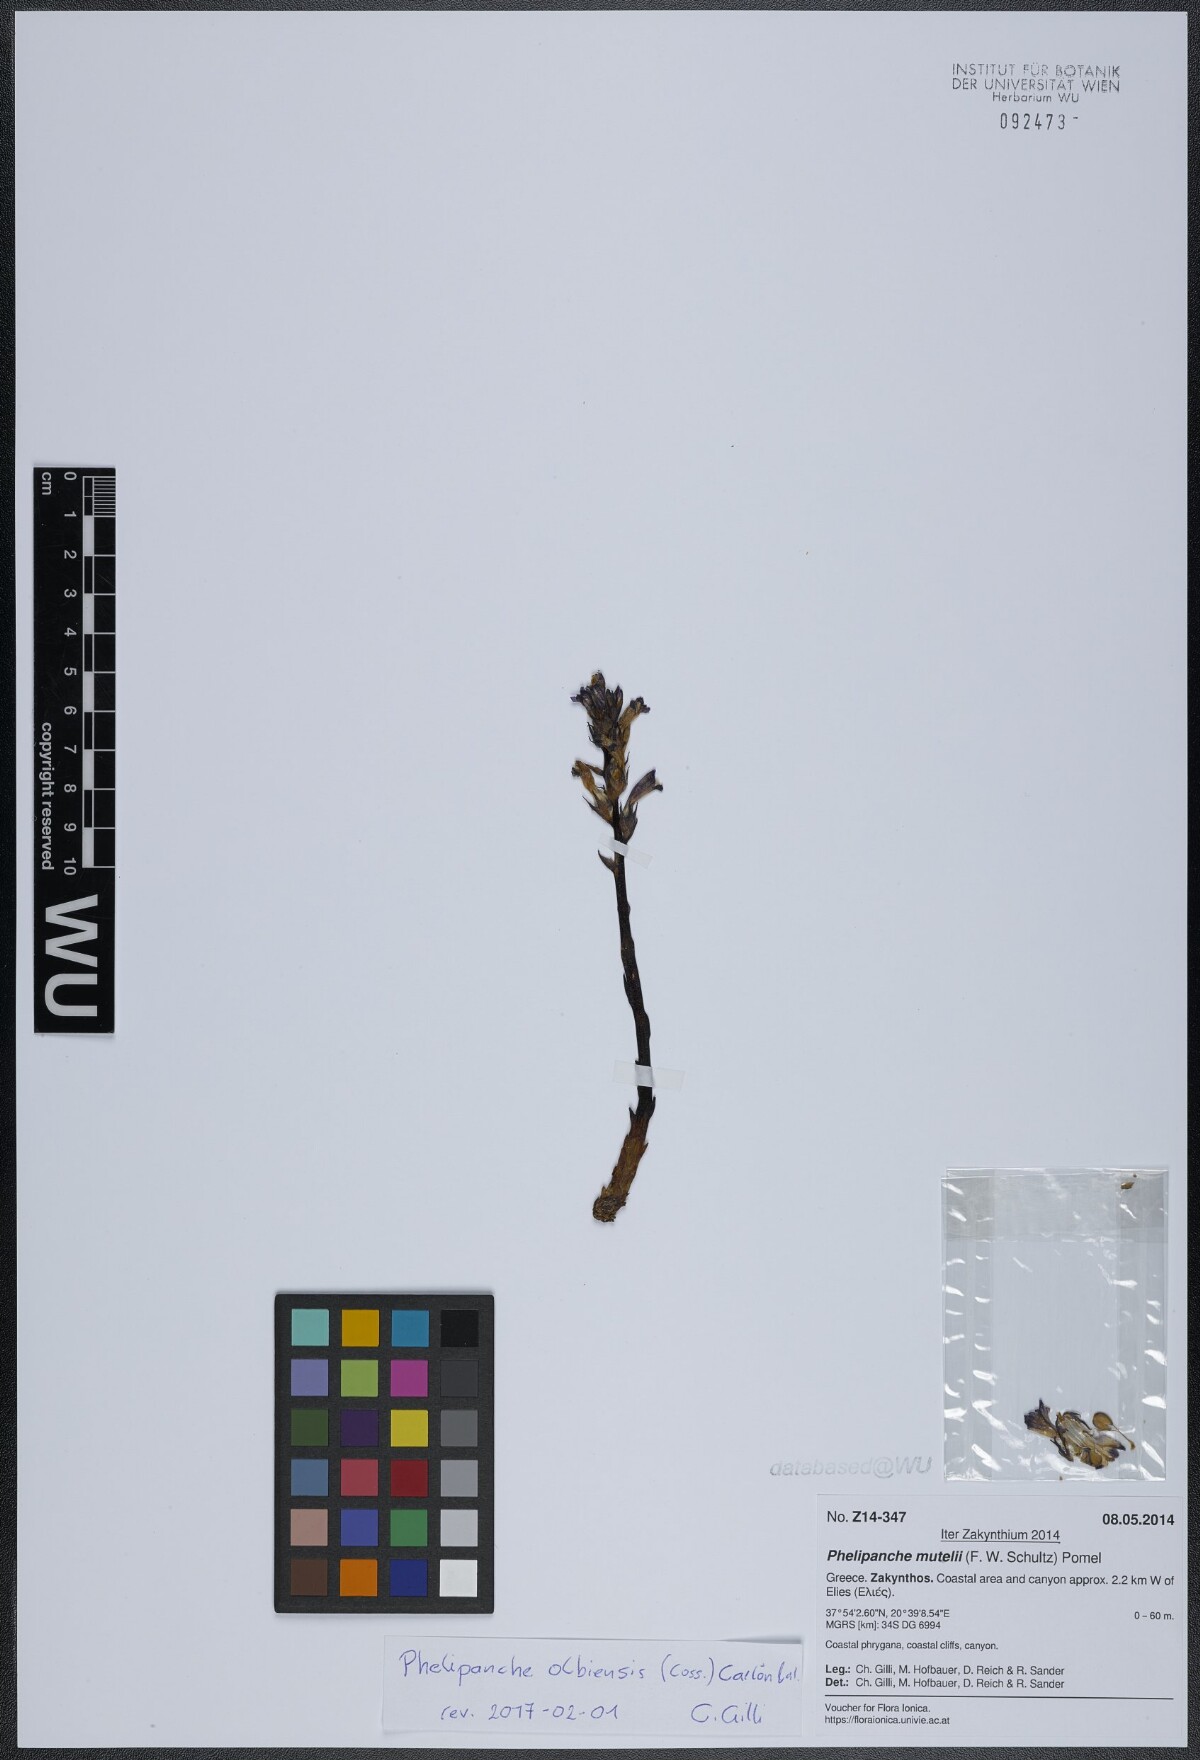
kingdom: Plantae
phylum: Tracheophyta
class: Magnoliopsida
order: Lamiales
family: Orobanchaceae
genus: Phelipanche
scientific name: Phelipanche olbiensis
